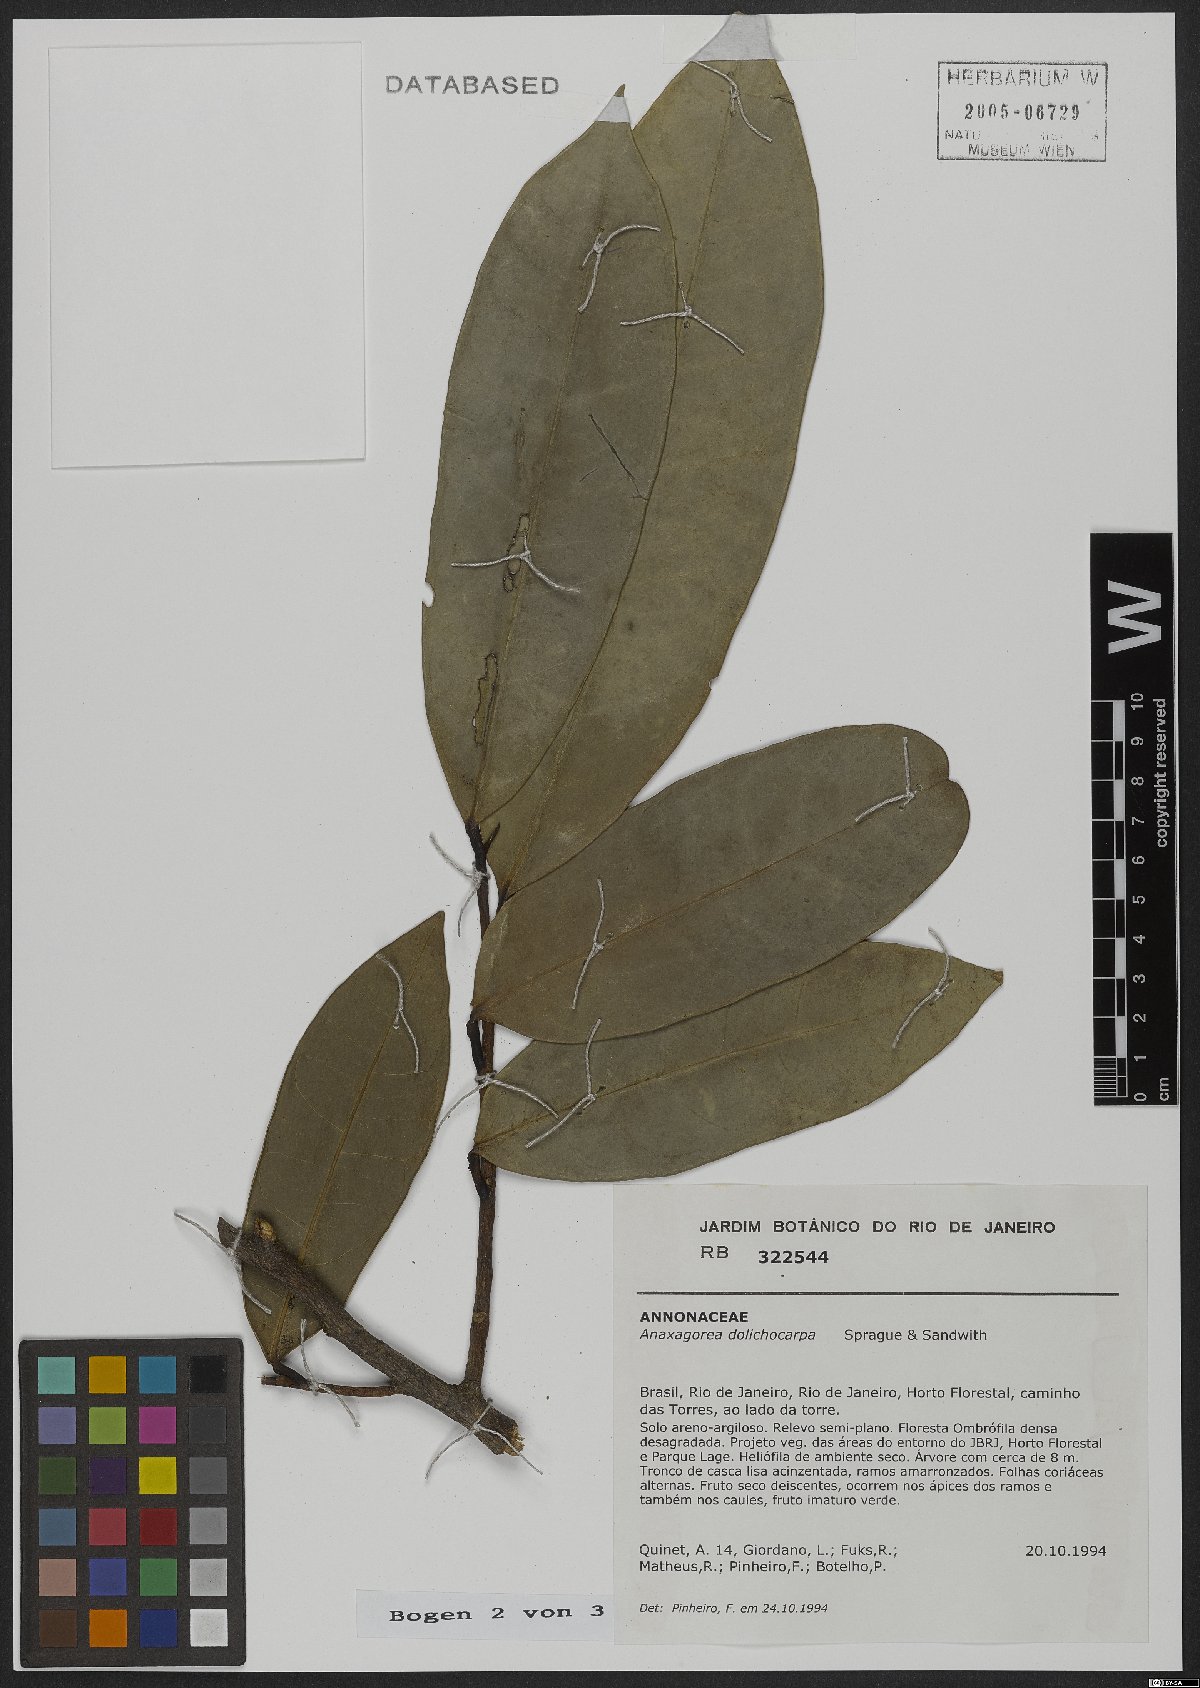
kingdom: Plantae
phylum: Tracheophyta
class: Magnoliopsida
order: Magnoliales
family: Annonaceae
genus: Anaxagorea
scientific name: Anaxagorea dolichocarpa
